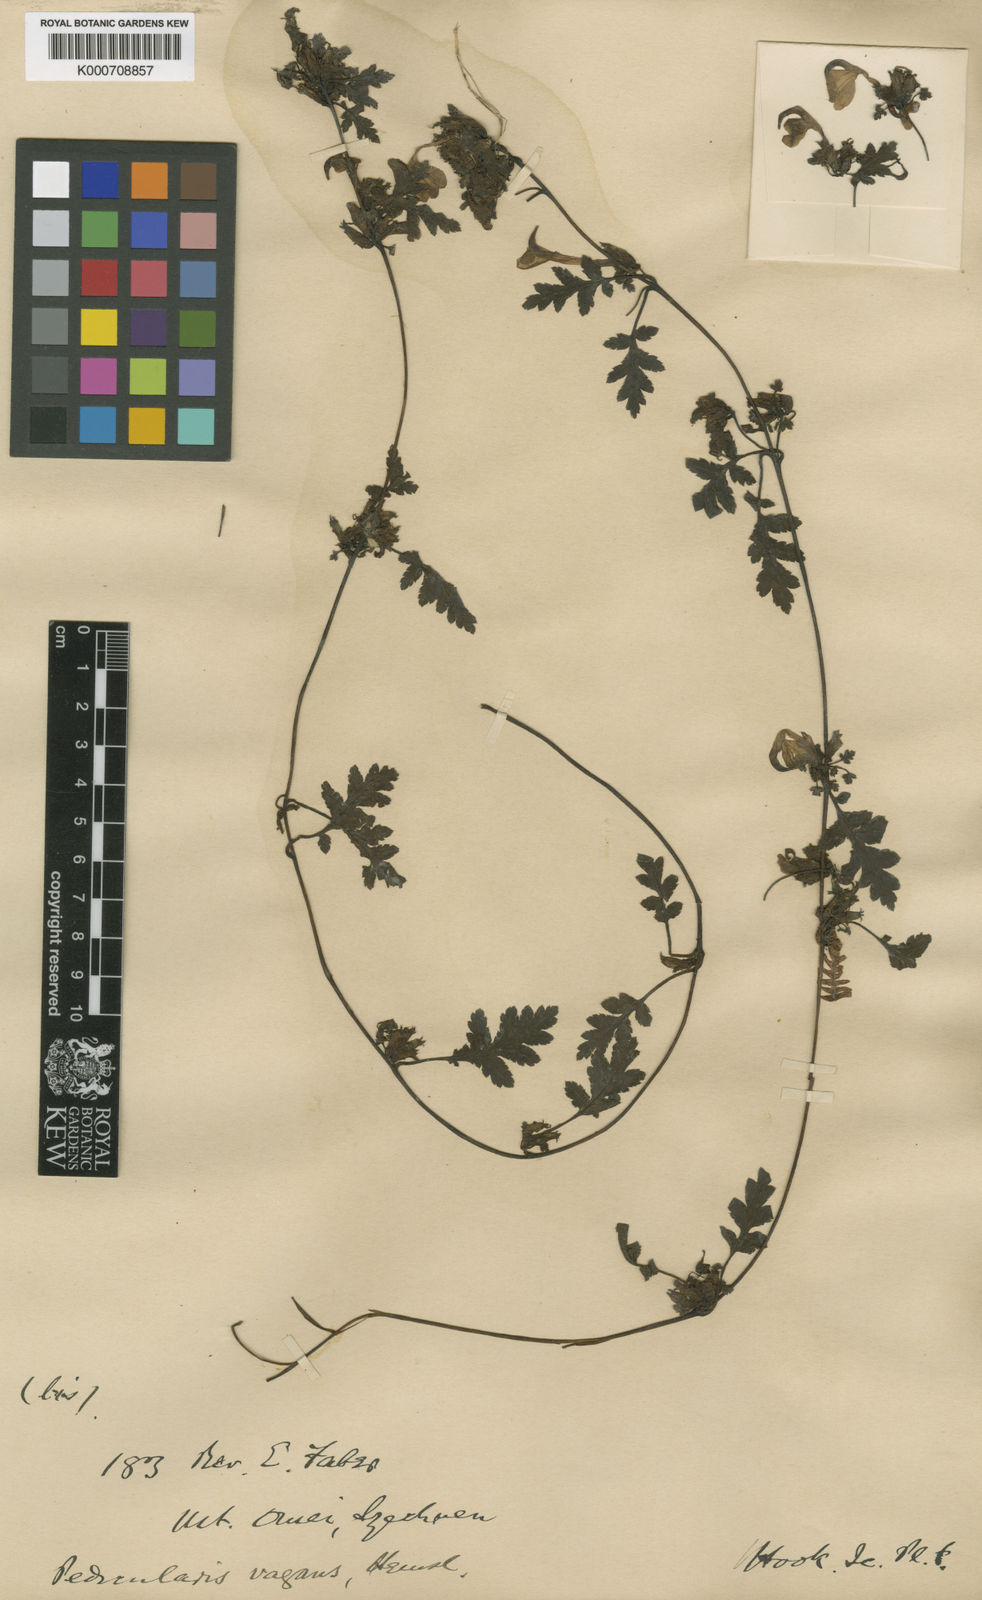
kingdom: Plantae
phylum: Tracheophyta
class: Magnoliopsida
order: Lamiales
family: Orobanchaceae
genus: Pedicularis
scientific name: Pedicularis vagans
